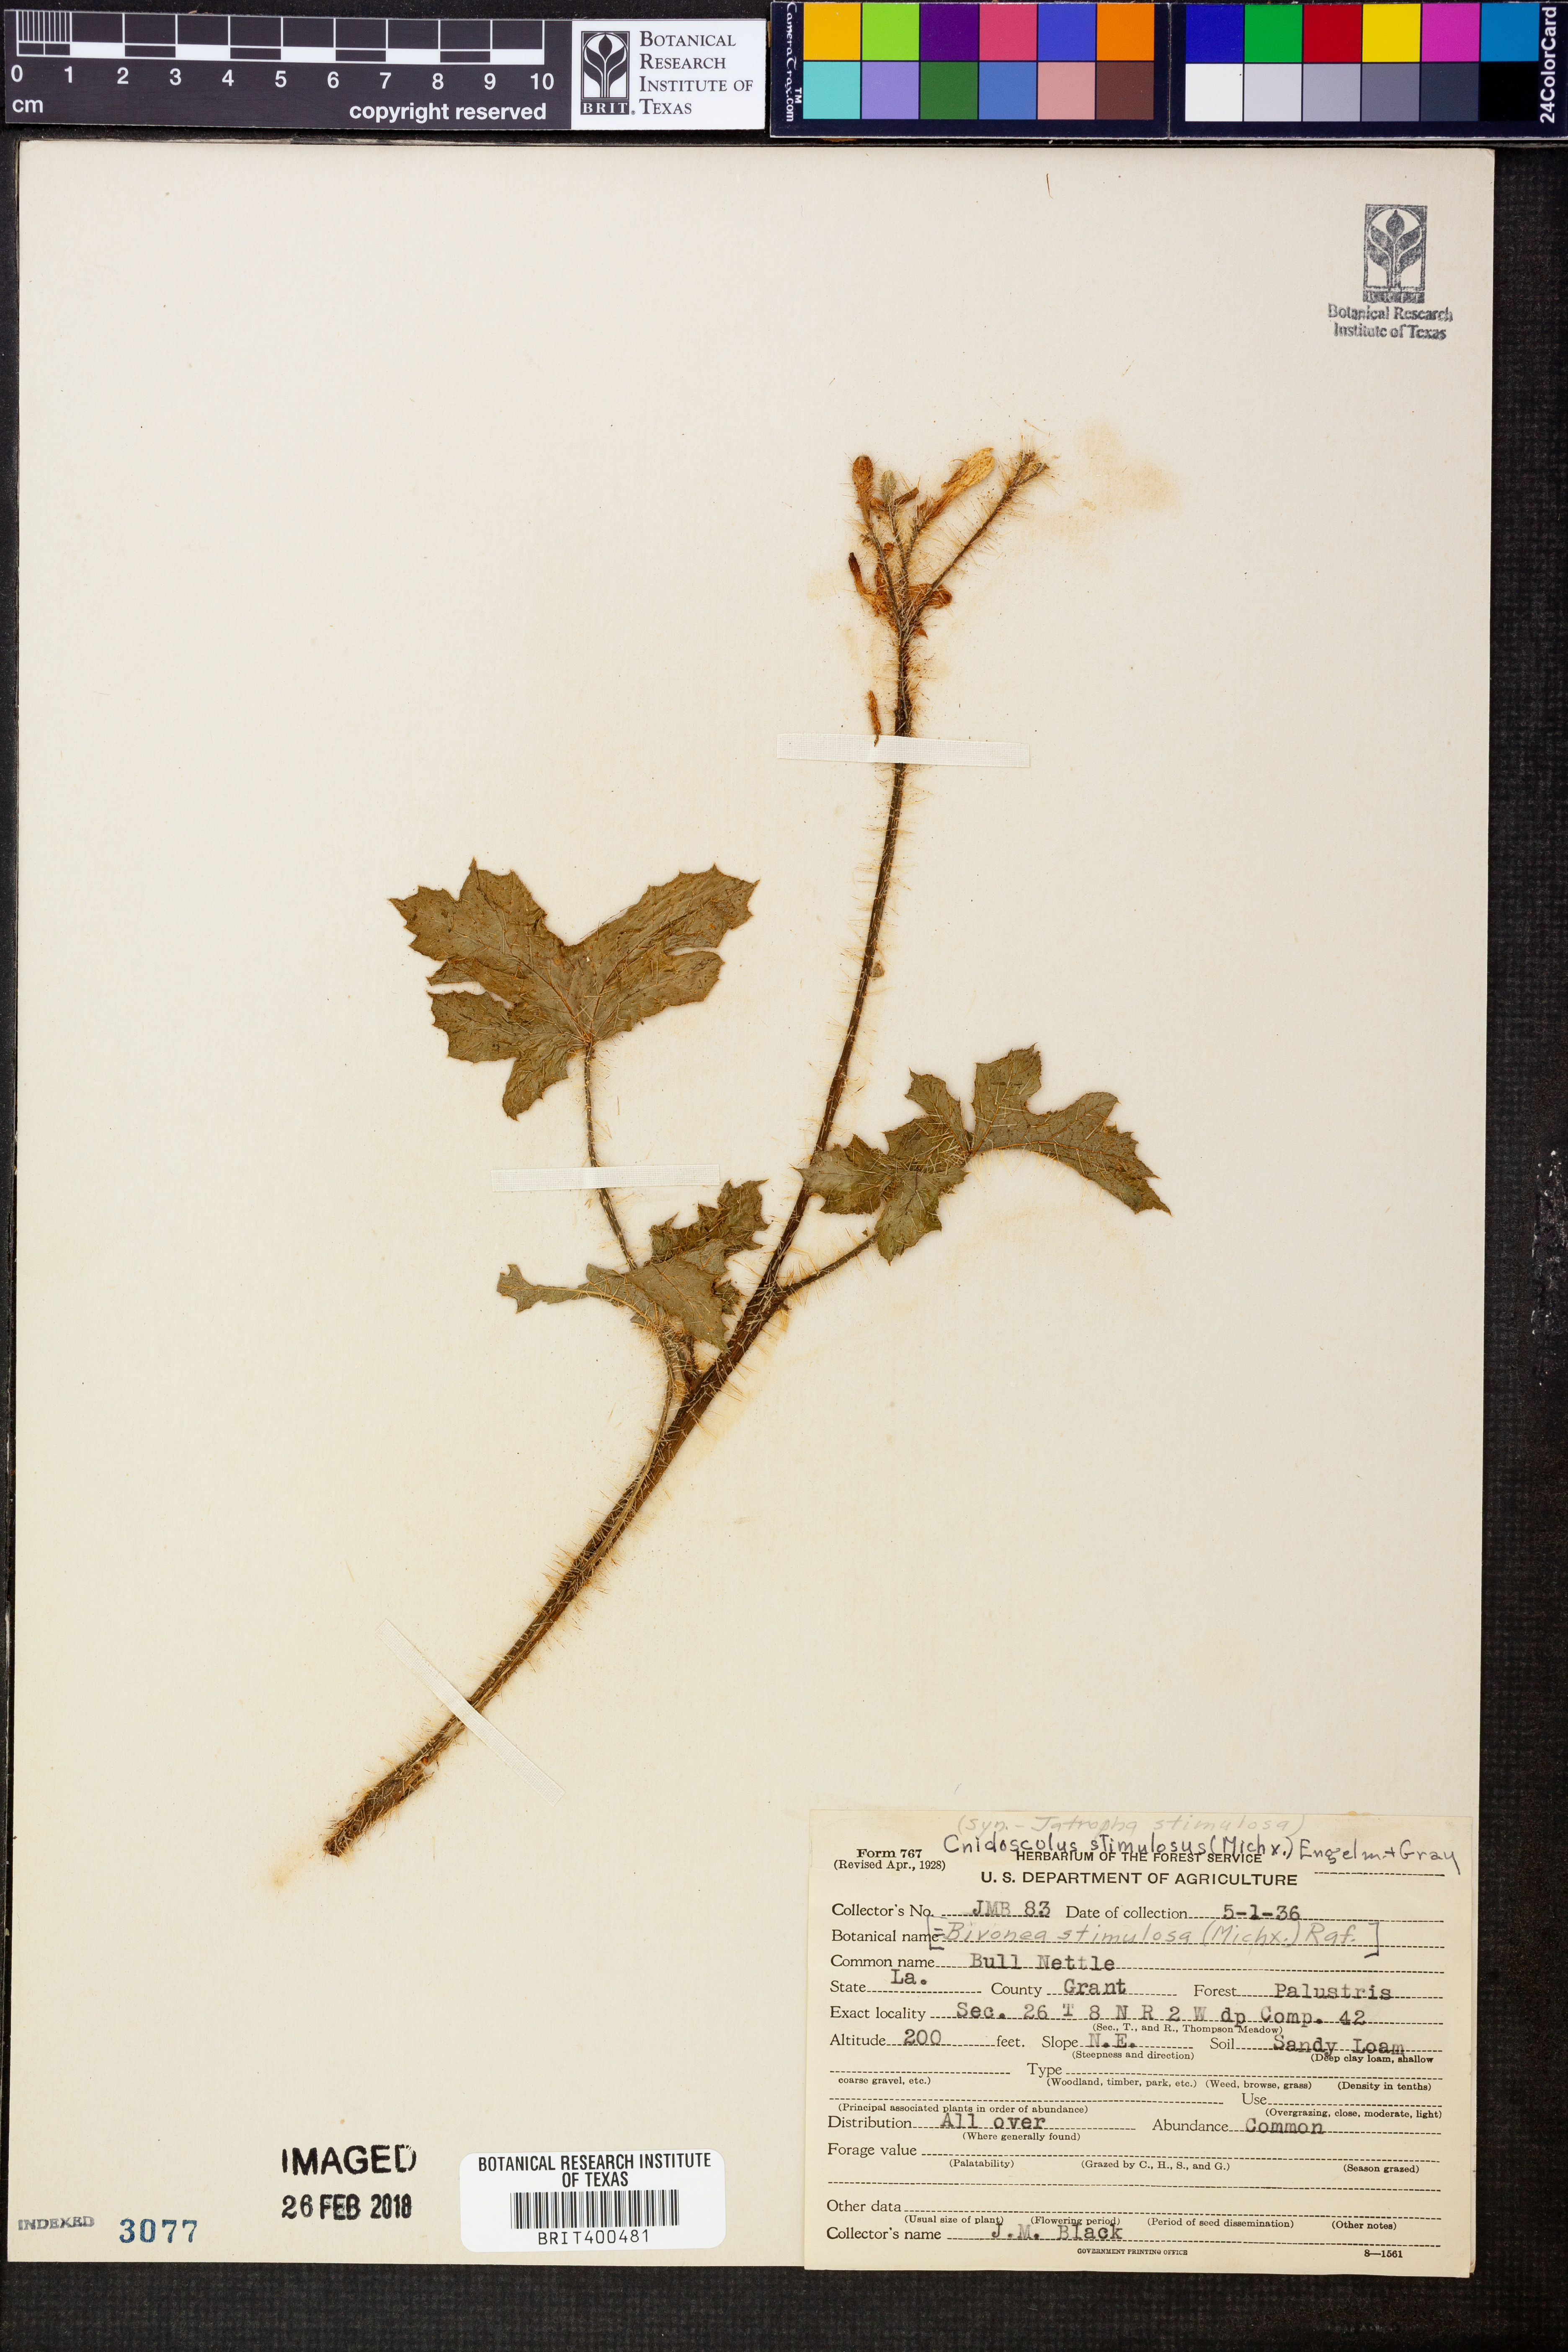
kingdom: Plantae
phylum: Tracheophyta
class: Magnoliopsida
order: Malpighiales
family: Euphorbiaceae
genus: Cnidoscolus
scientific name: Cnidoscolus stimulosus
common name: Bull-nettle
